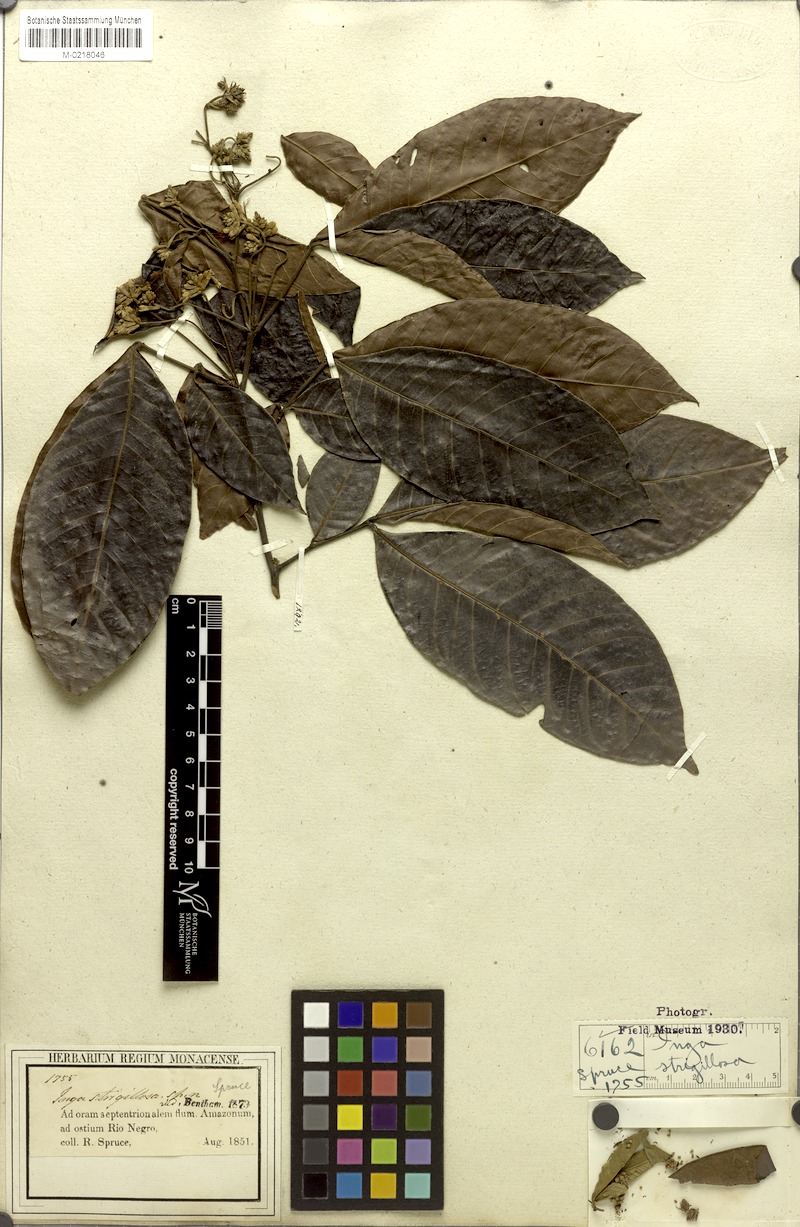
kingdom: Plantae
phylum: Tracheophyta
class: Magnoliopsida
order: Fabales
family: Fabaceae
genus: Inga
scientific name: Inga punctata
